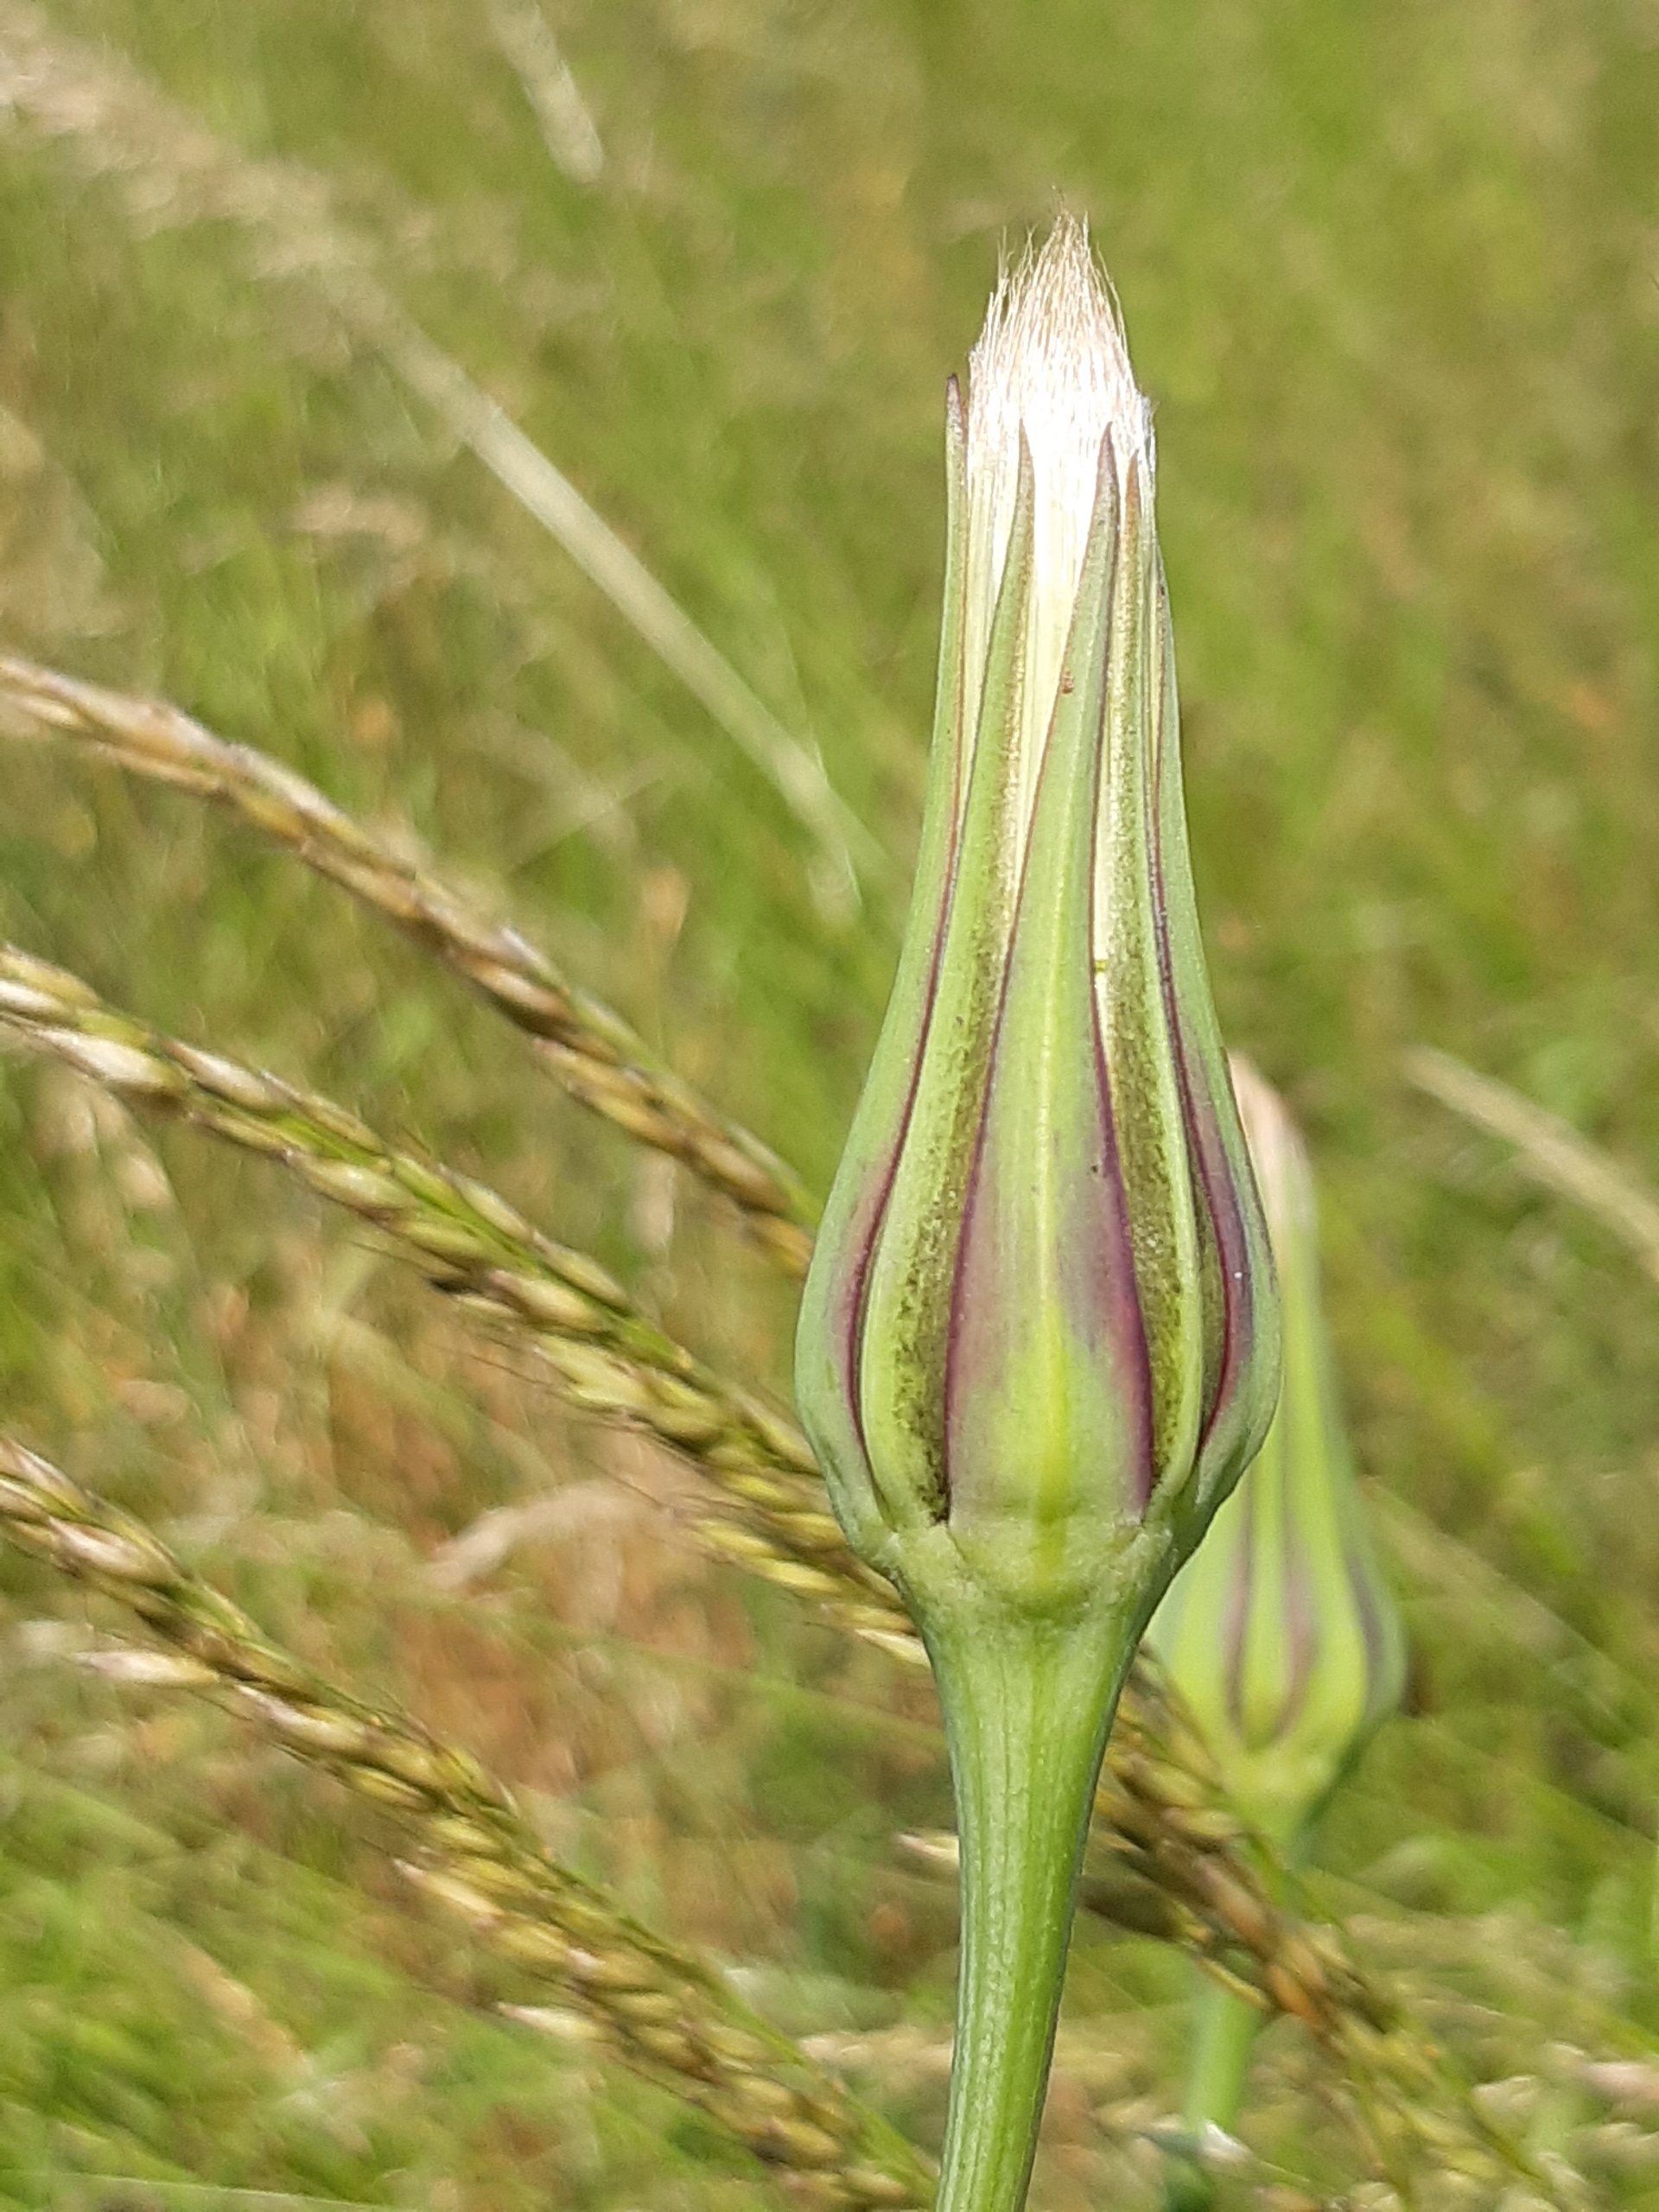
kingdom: Plantae
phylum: Tracheophyta
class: Magnoliopsida
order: Asterales
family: Asteraceae
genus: Tragopogon
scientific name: Tragopogon pratensis
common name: Gedeskæg
